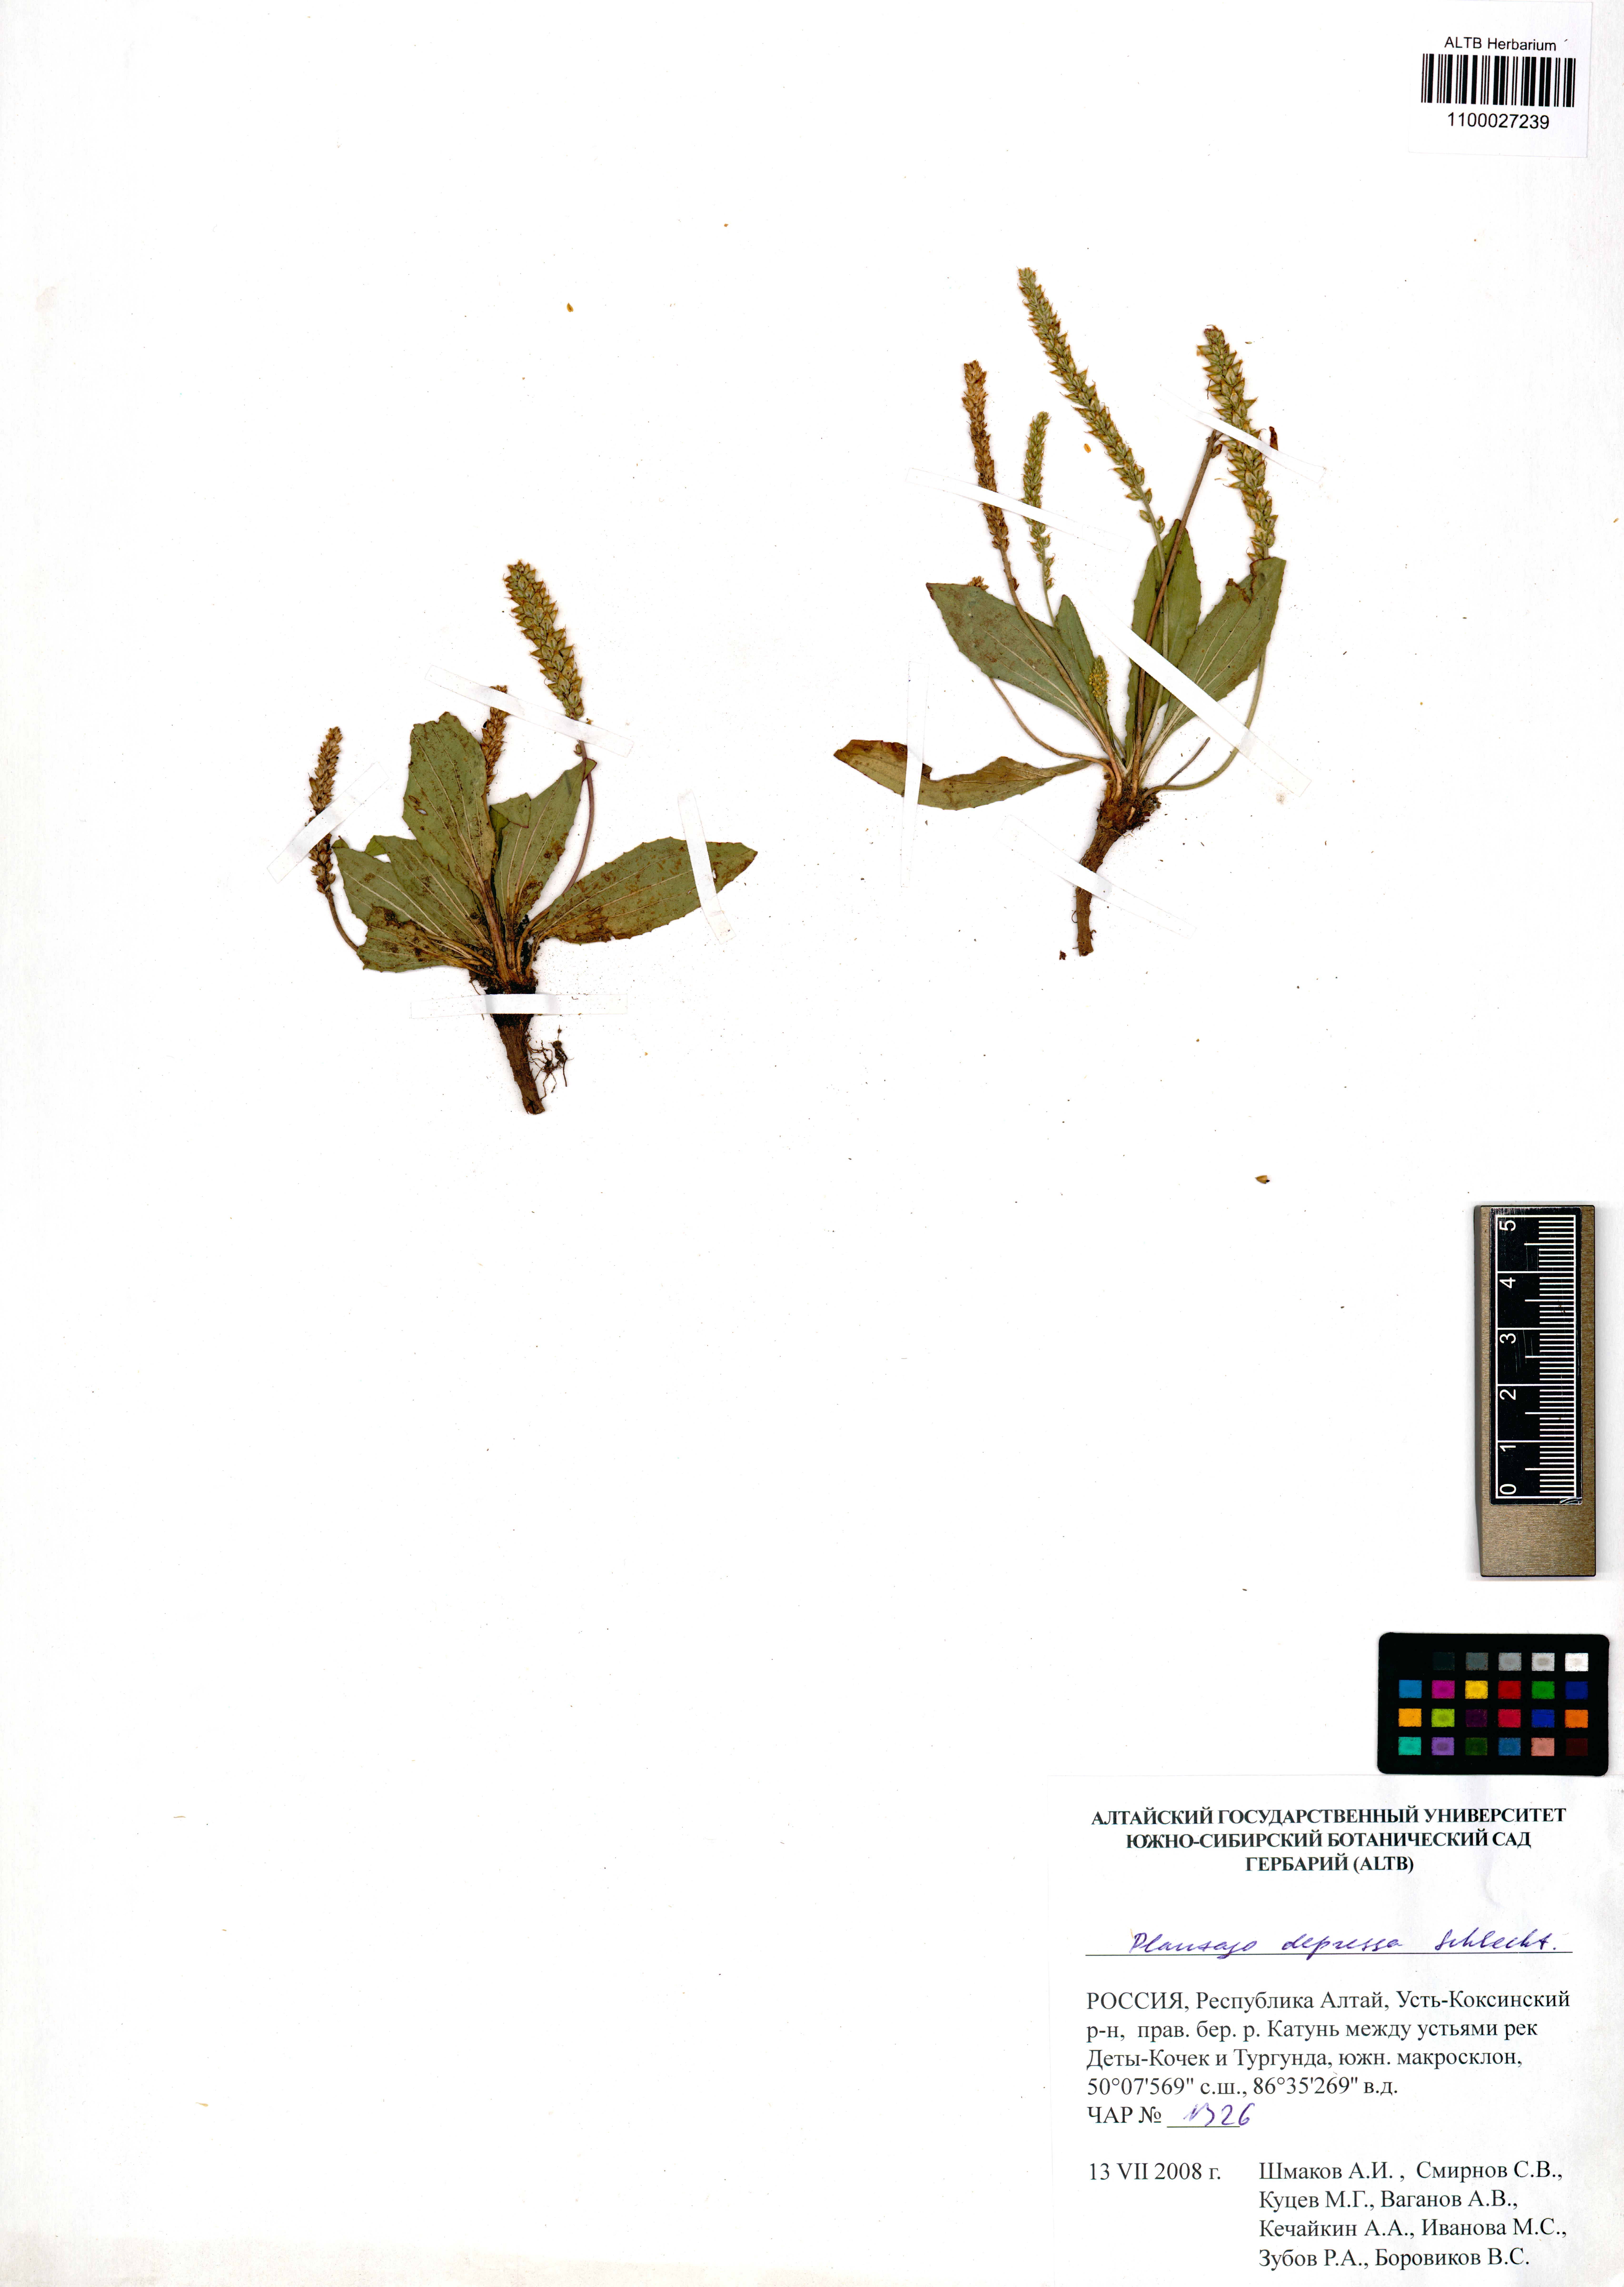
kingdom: Plantae
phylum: Tracheophyta
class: Magnoliopsida
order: Lamiales
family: Plantaginaceae
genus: Plantago
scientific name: Plantago depressa
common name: Depressed plantain
